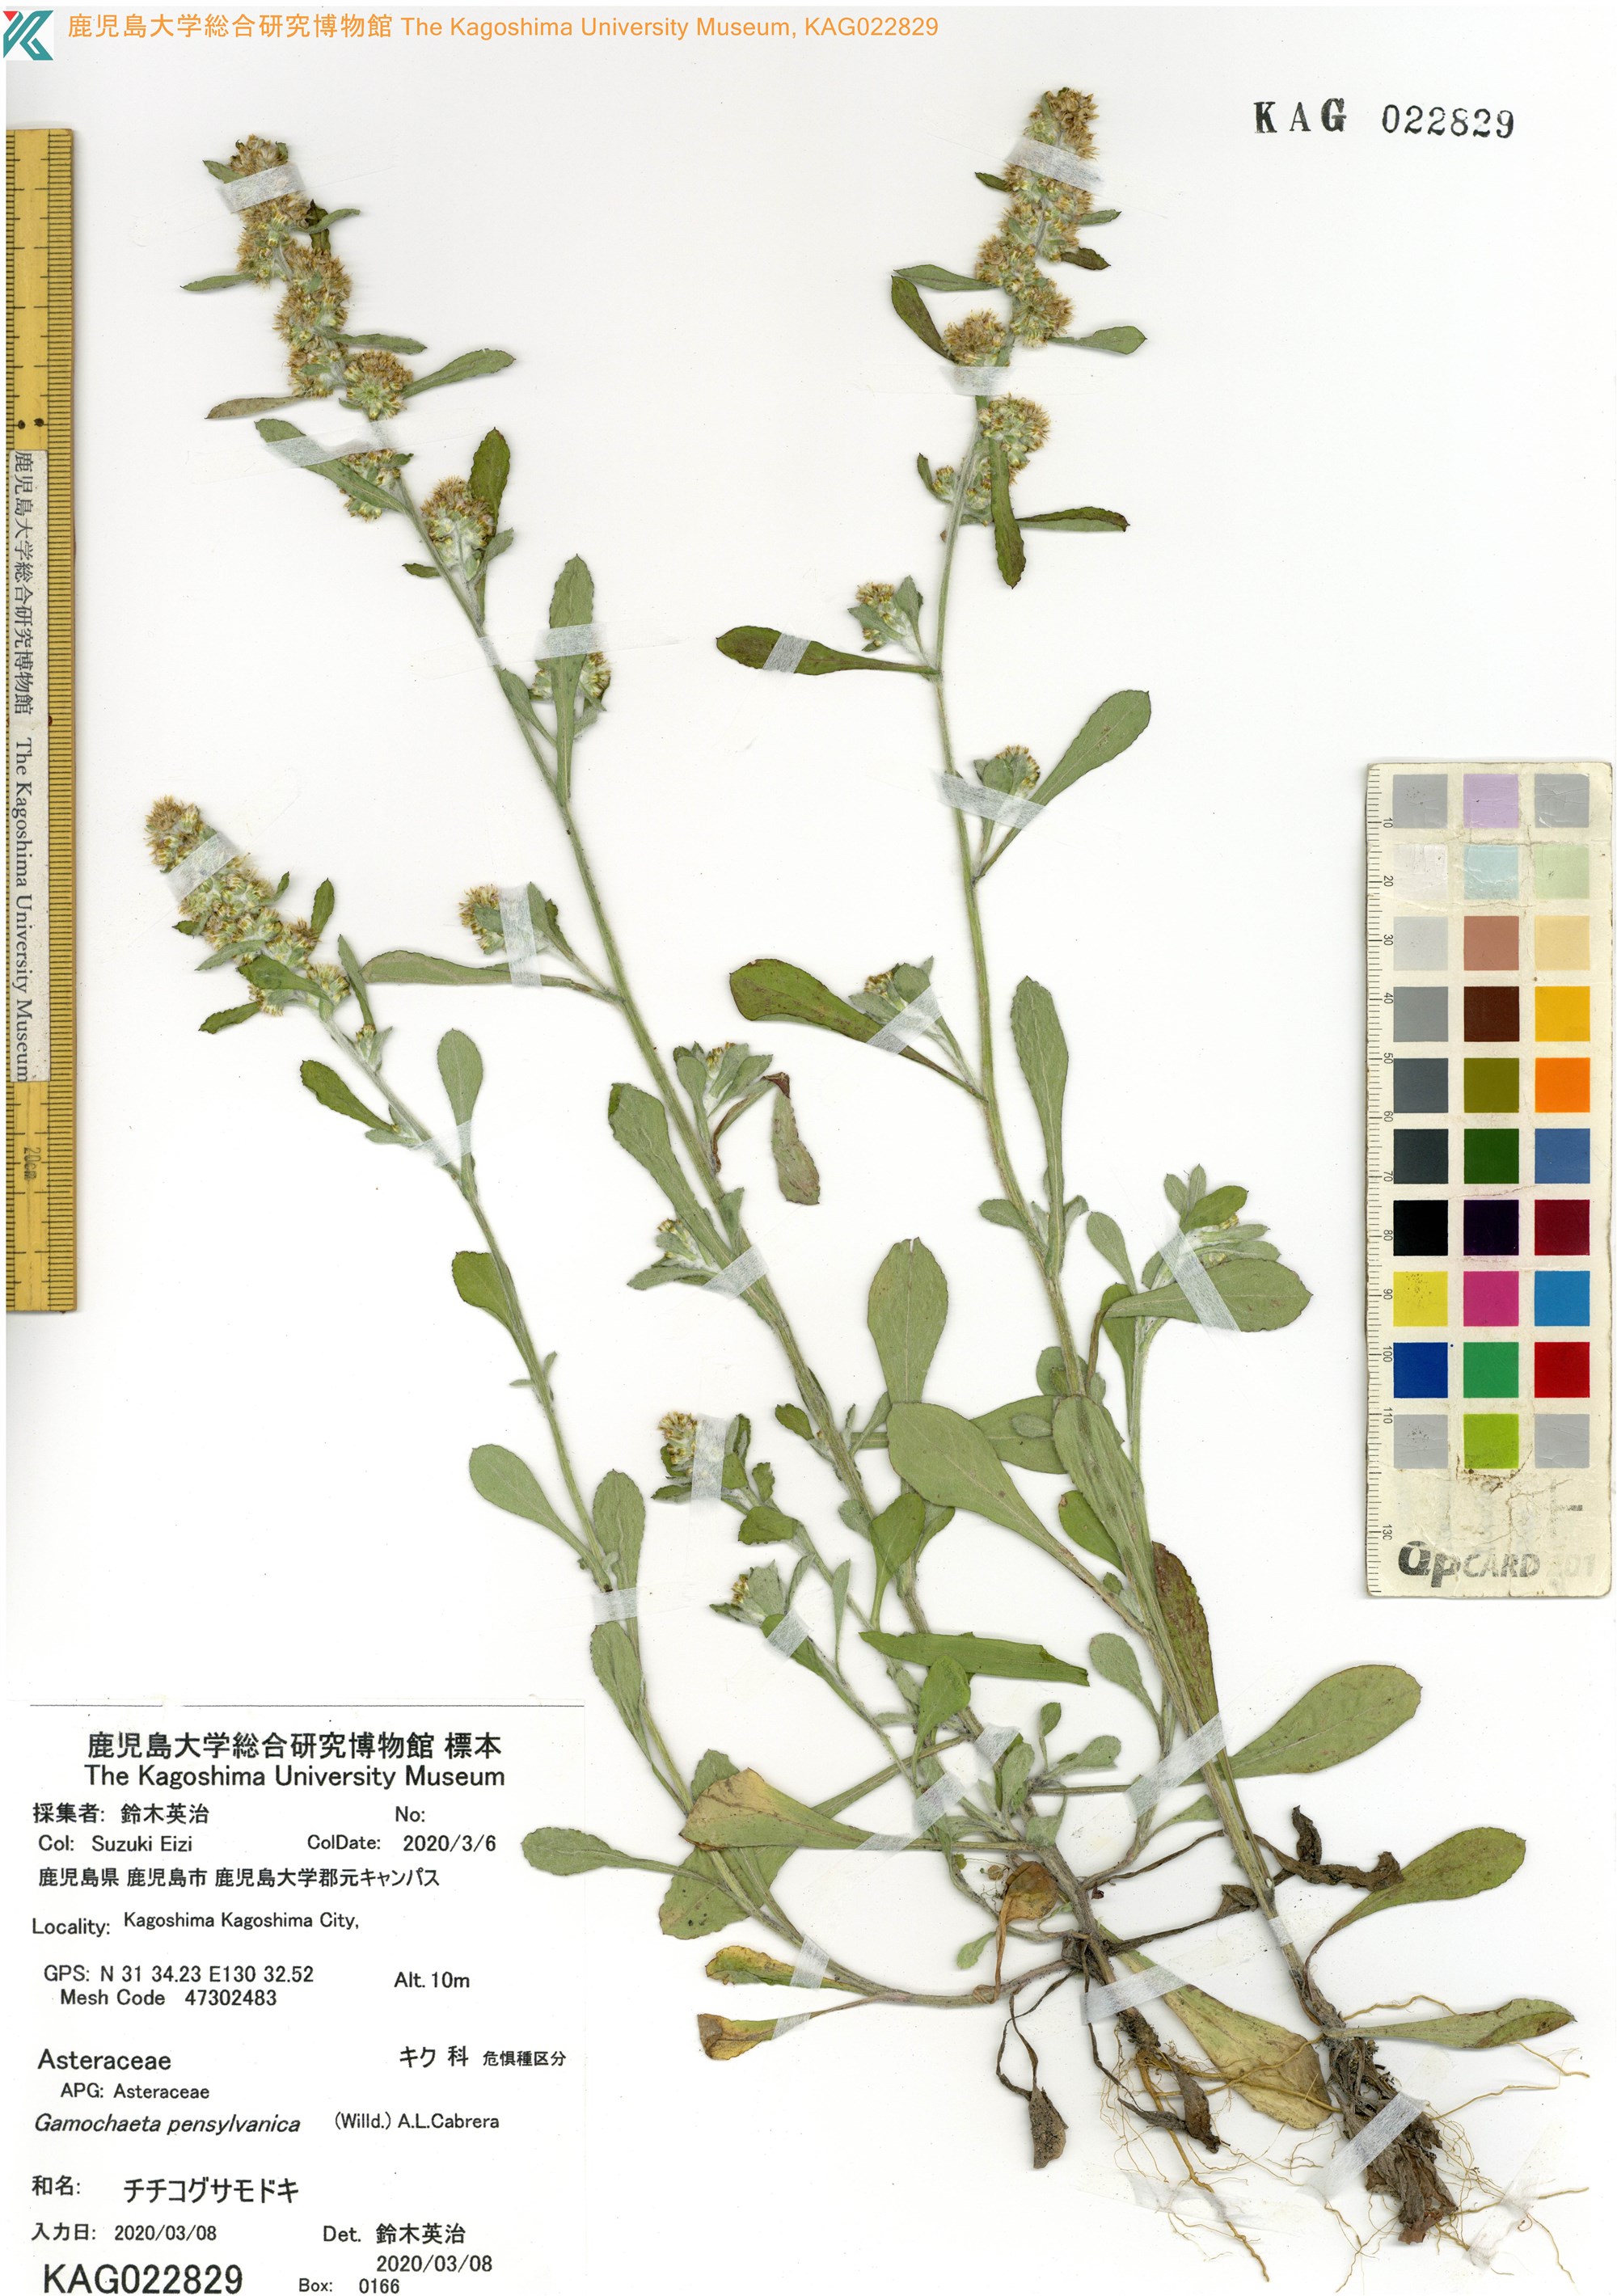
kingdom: Plantae
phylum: Tracheophyta
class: Magnoliopsida
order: Asterales
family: Asteraceae
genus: Gamochaeta
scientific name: Gamochaeta pensylvanica
